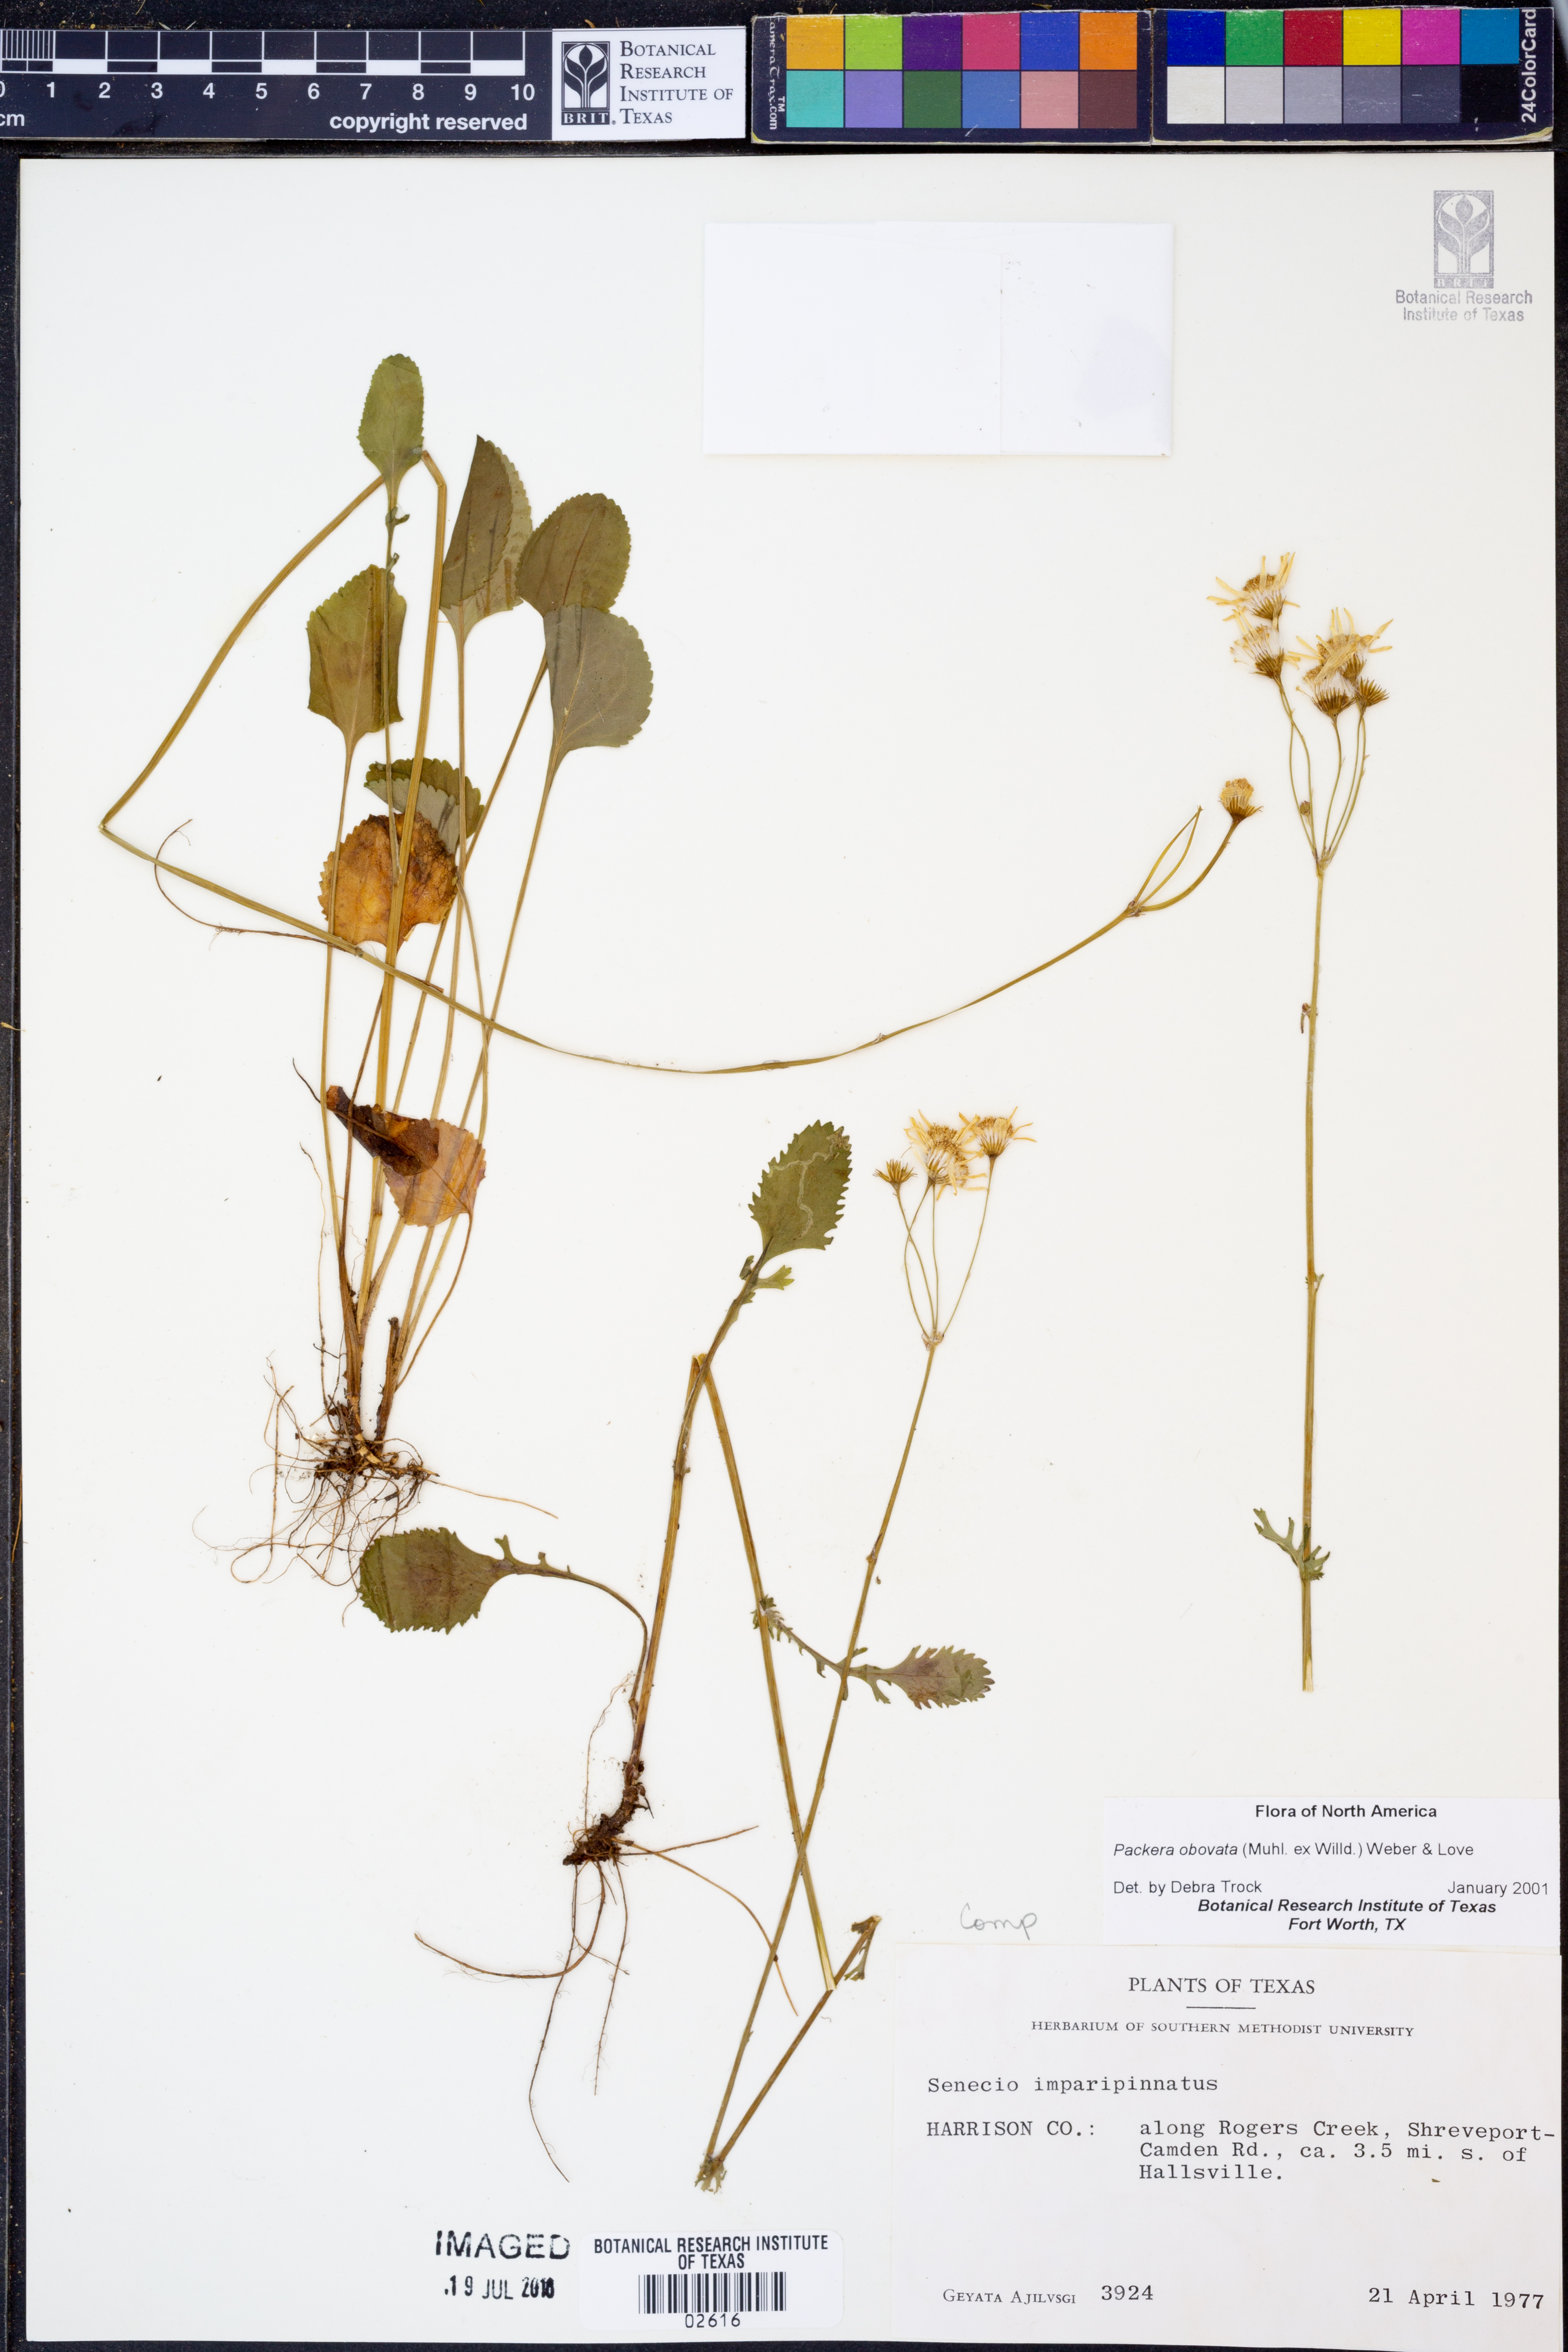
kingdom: Plantae
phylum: Tracheophyta
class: Magnoliopsida
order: Asterales
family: Asteraceae
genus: Packera
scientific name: Packera obovata
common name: Round-leaf ragwort
